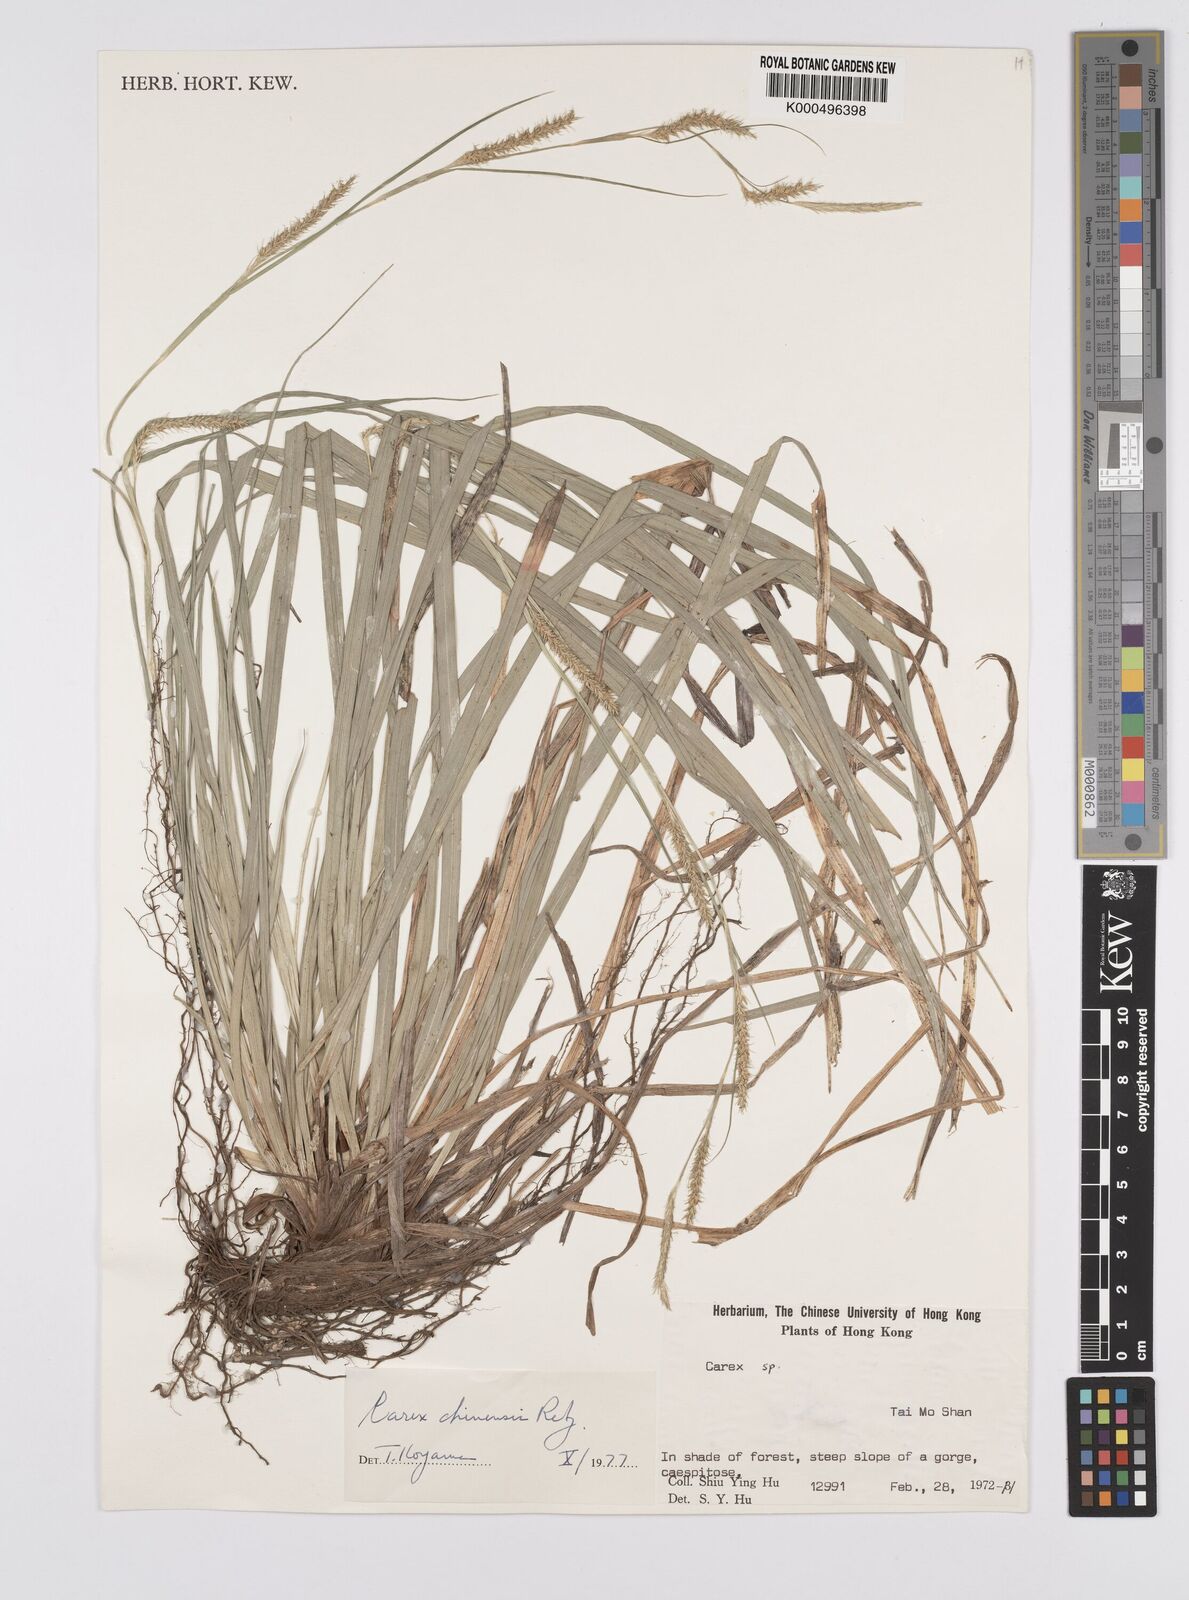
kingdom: Plantae
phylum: Tracheophyta
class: Liliopsida
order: Poales
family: Cyperaceae
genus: Carex
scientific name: Carex chinensis
